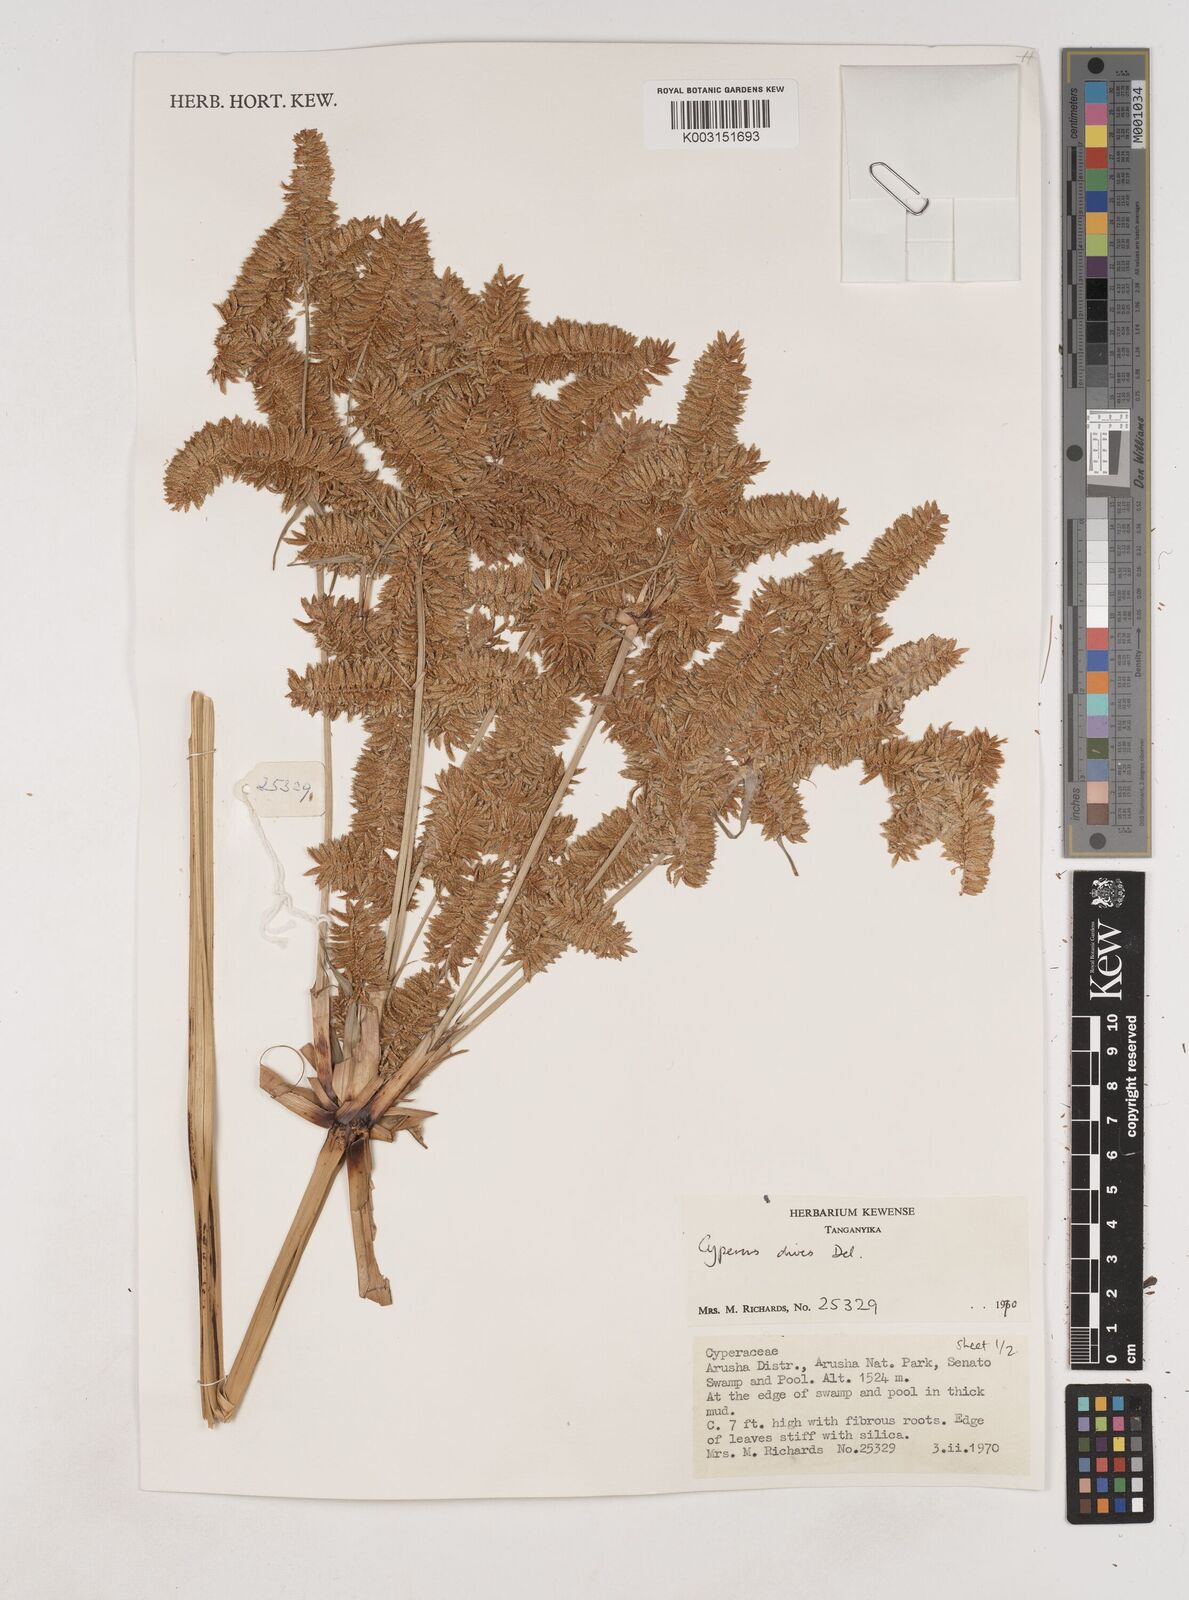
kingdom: Plantae
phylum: Tracheophyta
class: Liliopsida
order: Poales
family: Cyperaceae
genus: Cyperus
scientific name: Cyperus exaltatus
